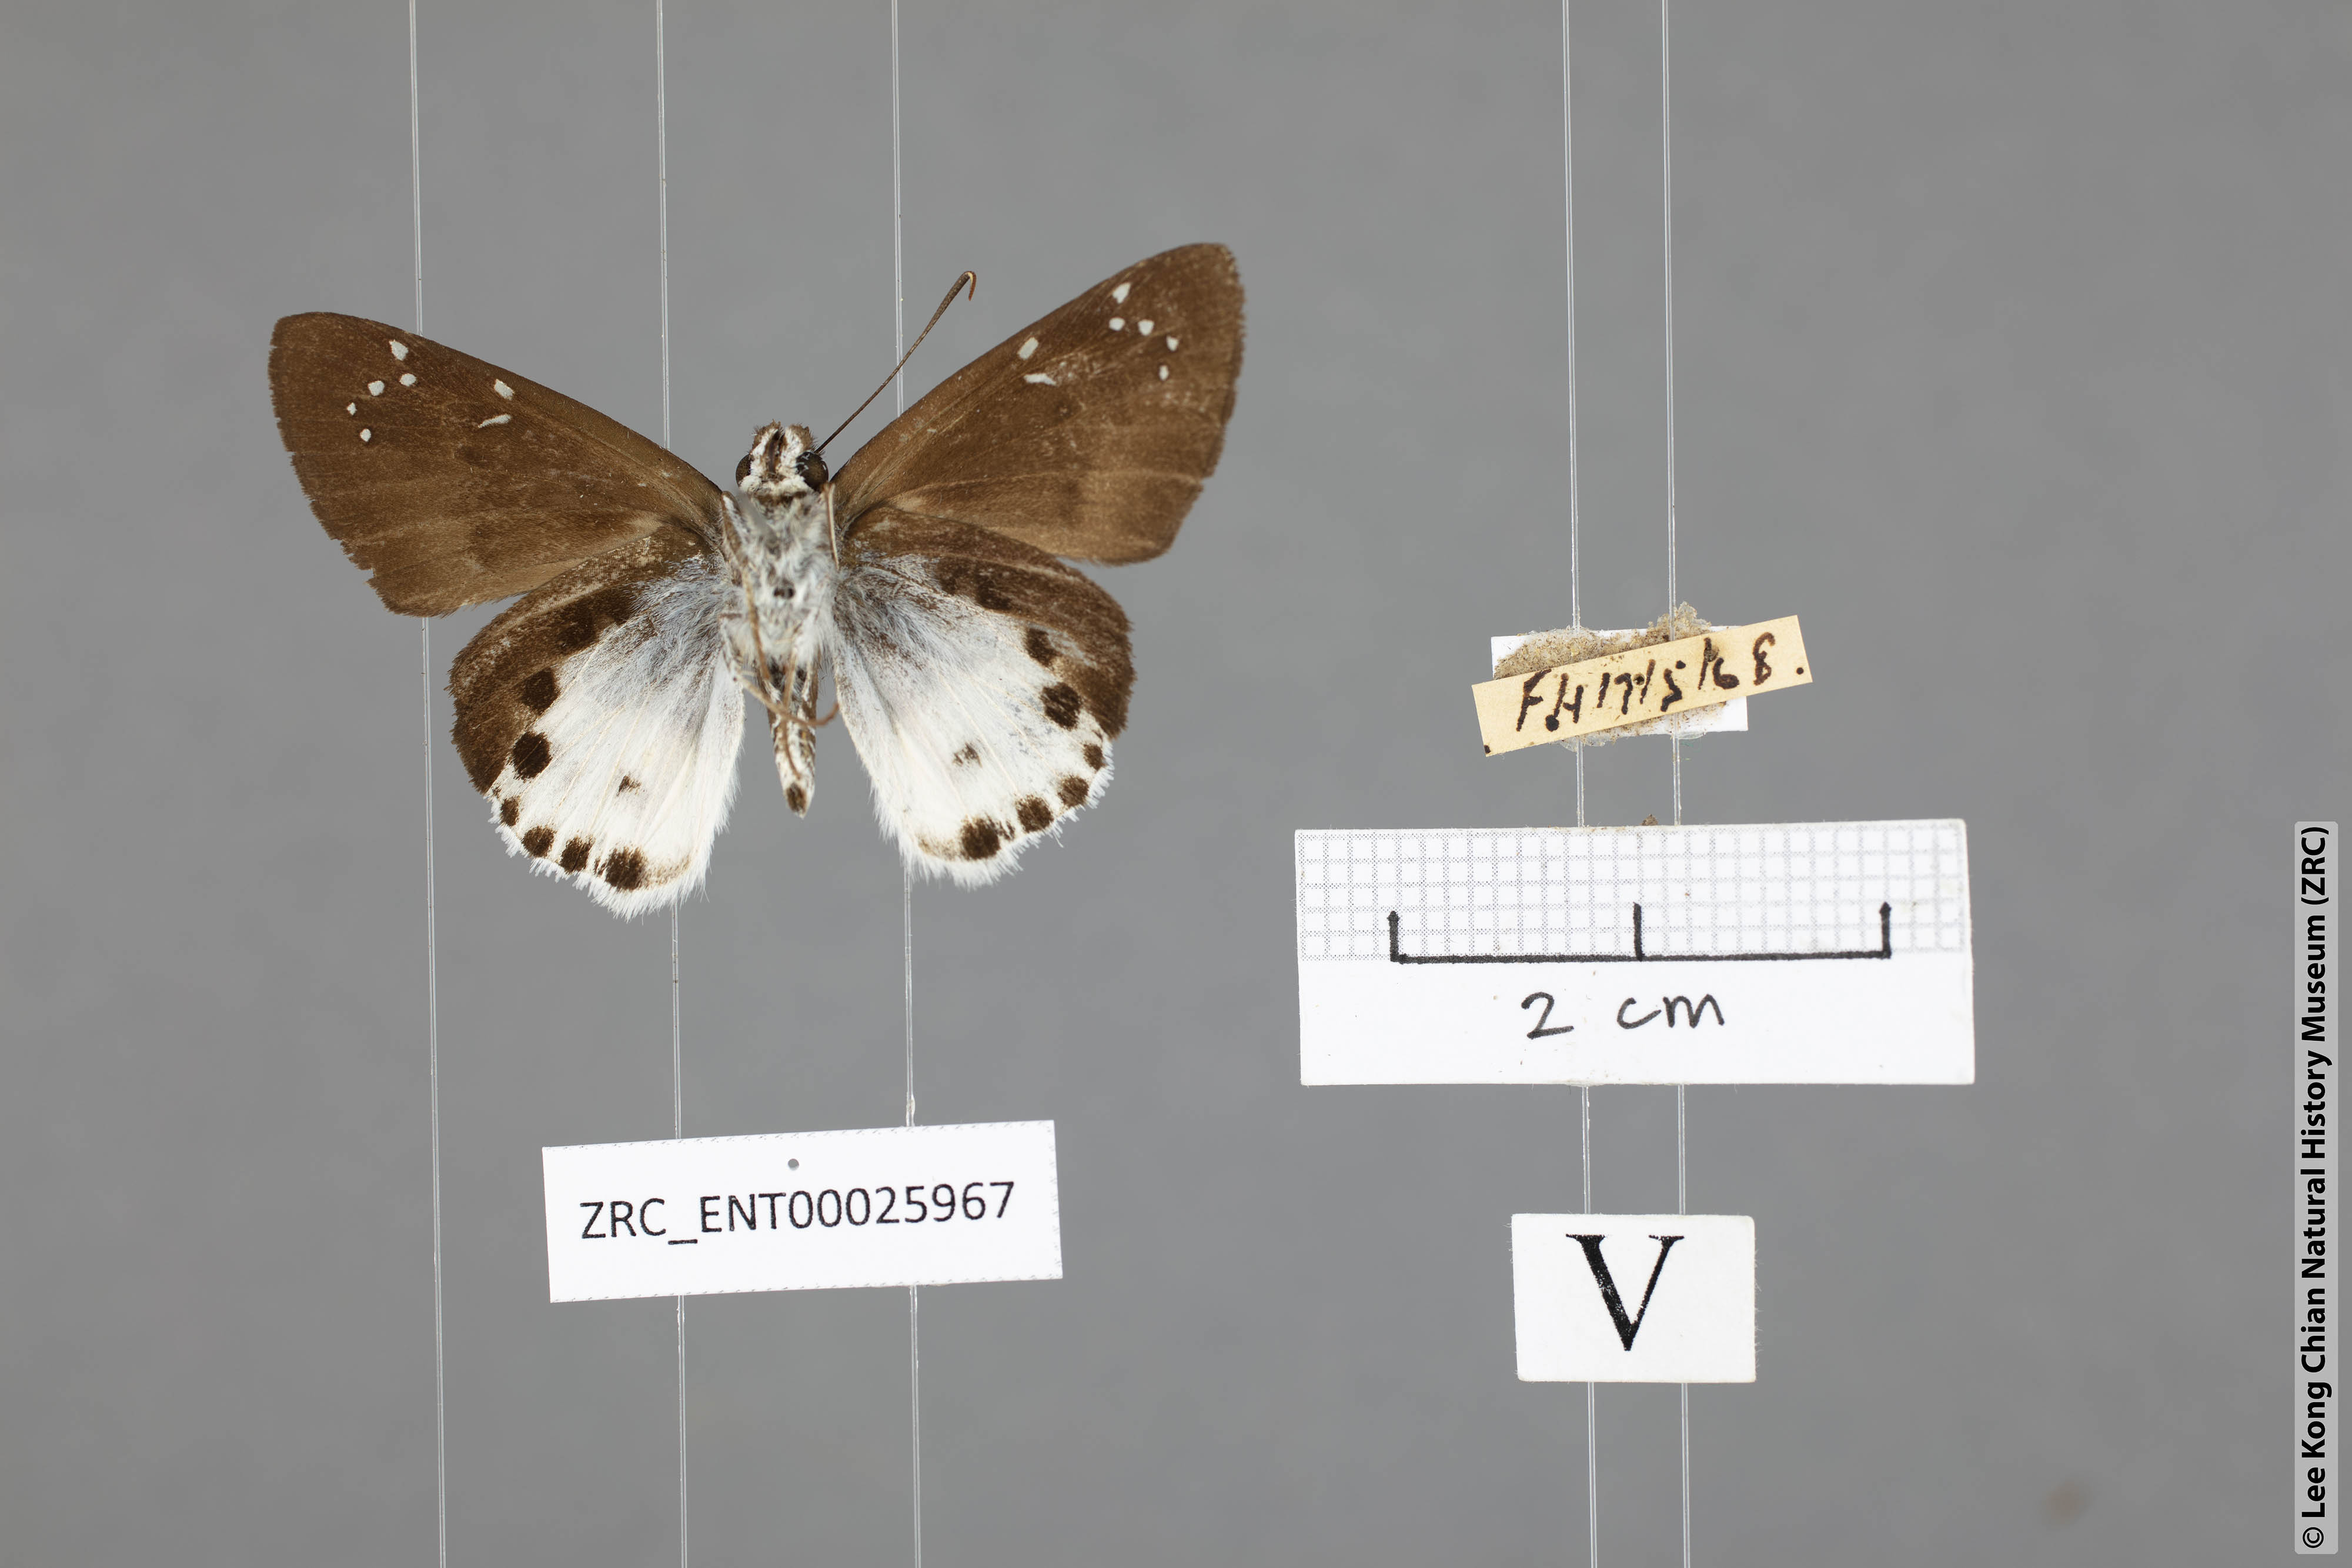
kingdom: Animalia
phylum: Arthropoda
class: Insecta
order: Lepidoptera
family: Hesperiidae
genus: Tagiades
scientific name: Tagiades cohaerens
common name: White-striped snow flat
